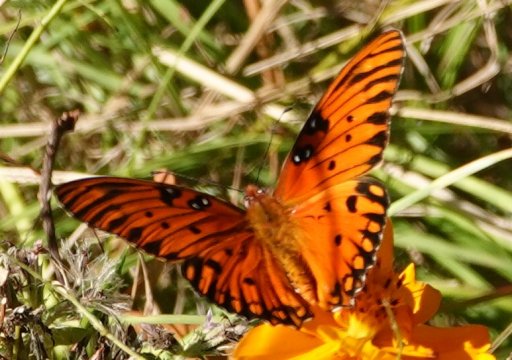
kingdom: Animalia
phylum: Arthropoda
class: Insecta
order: Lepidoptera
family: Nymphalidae
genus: Dione
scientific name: Dione vanillae
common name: Gulf Fritillary
